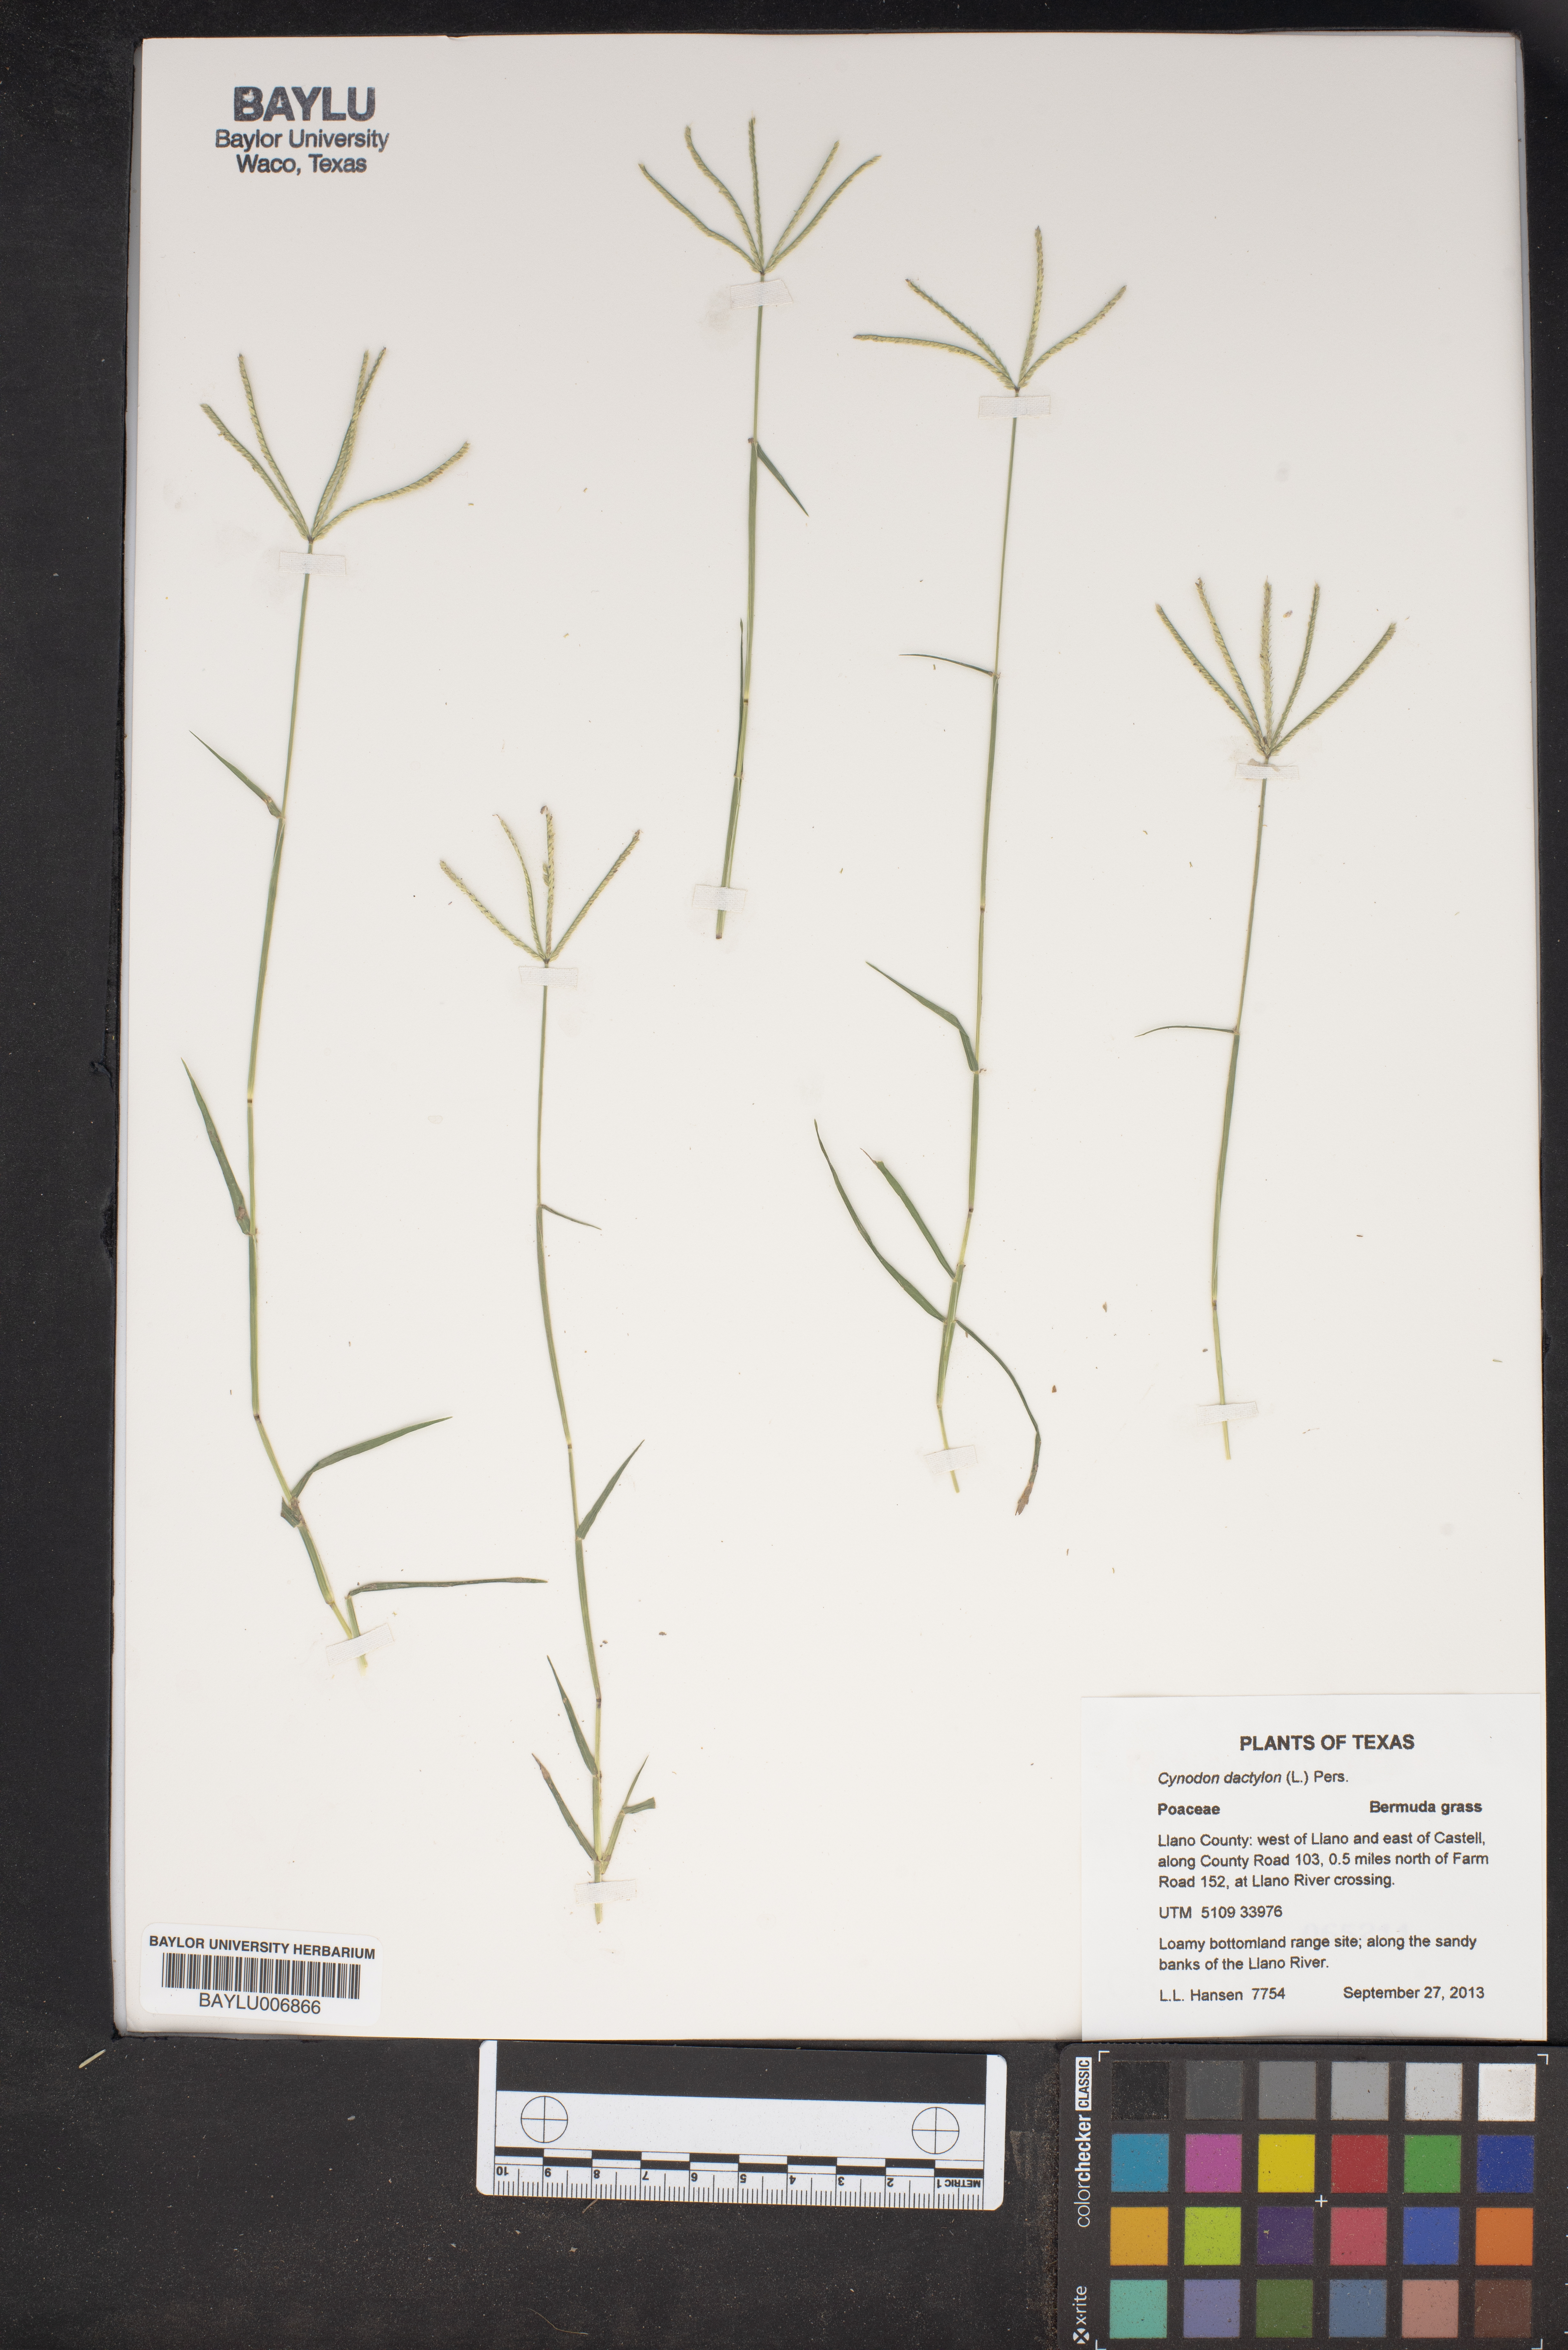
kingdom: Plantae
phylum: Tracheophyta
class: Liliopsida
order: Poales
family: Poaceae
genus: Cynodon
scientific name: Cynodon dactylon
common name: Bermuda grass
